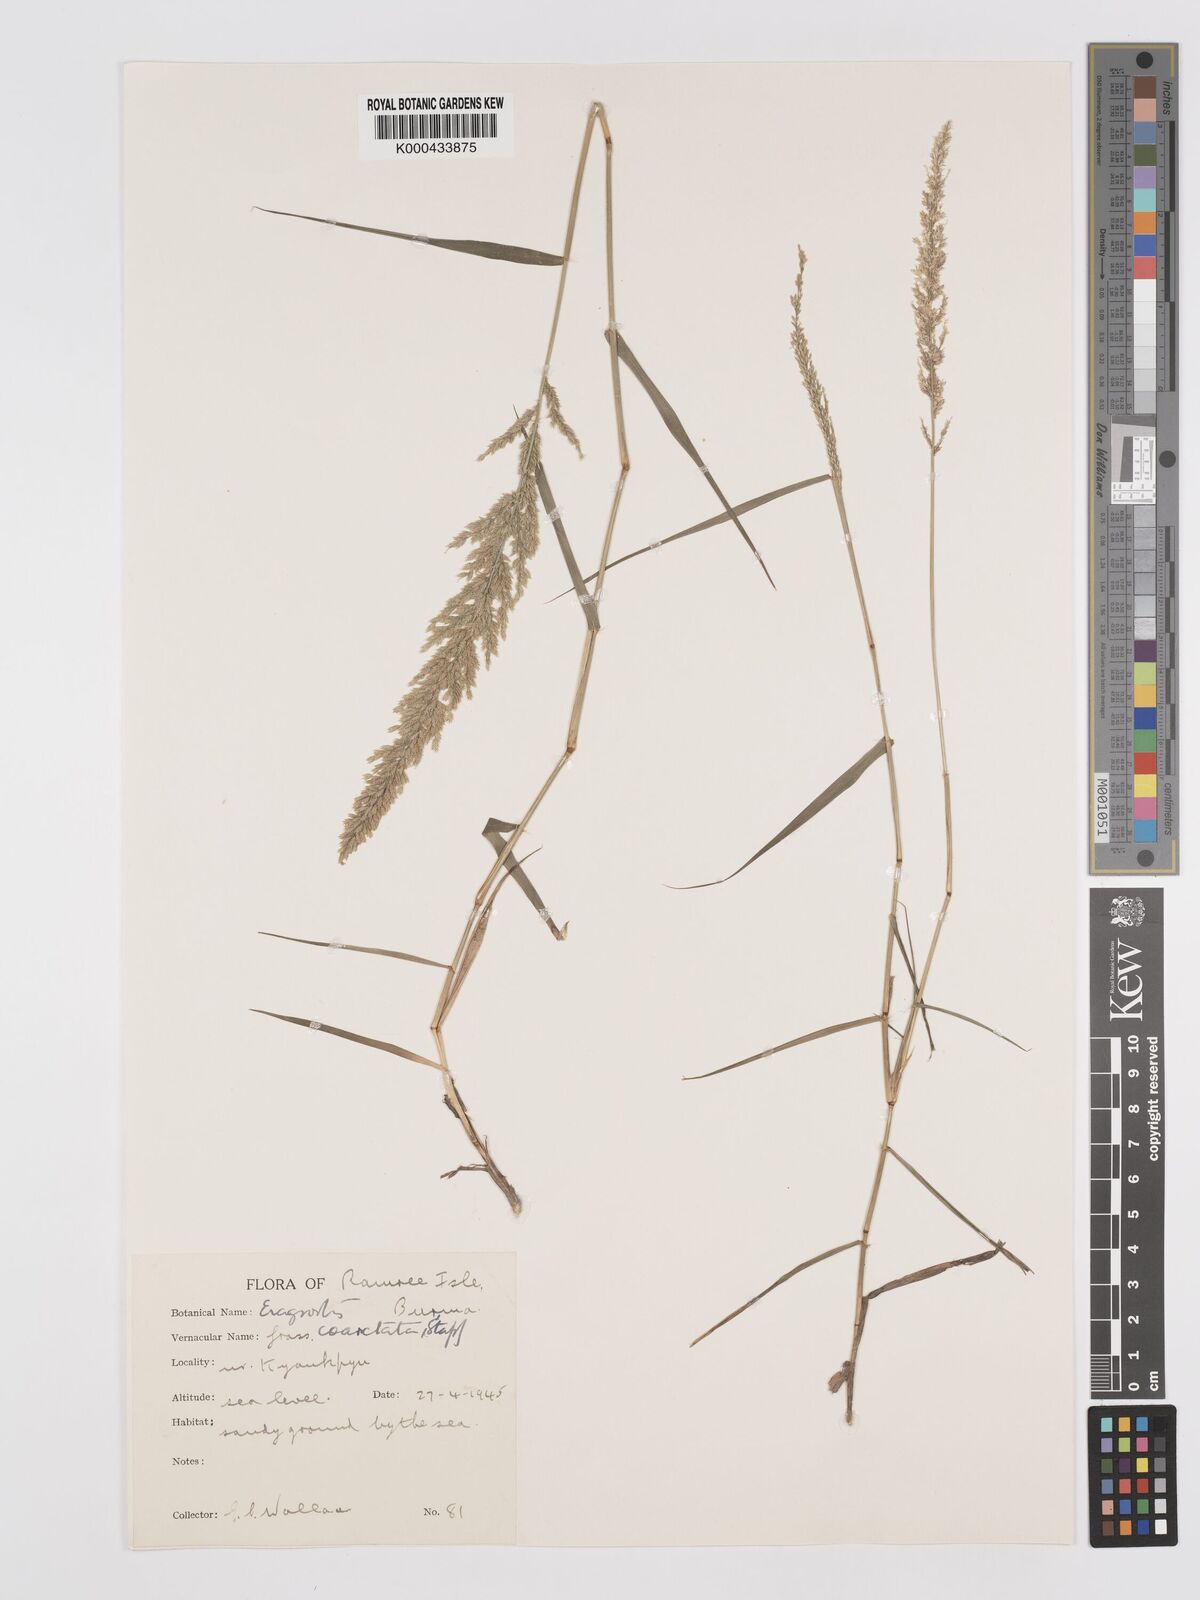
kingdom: Plantae
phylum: Tracheophyta
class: Liliopsida
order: Poales
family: Poaceae
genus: Eragrostis
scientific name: Eragrostis coarctata
